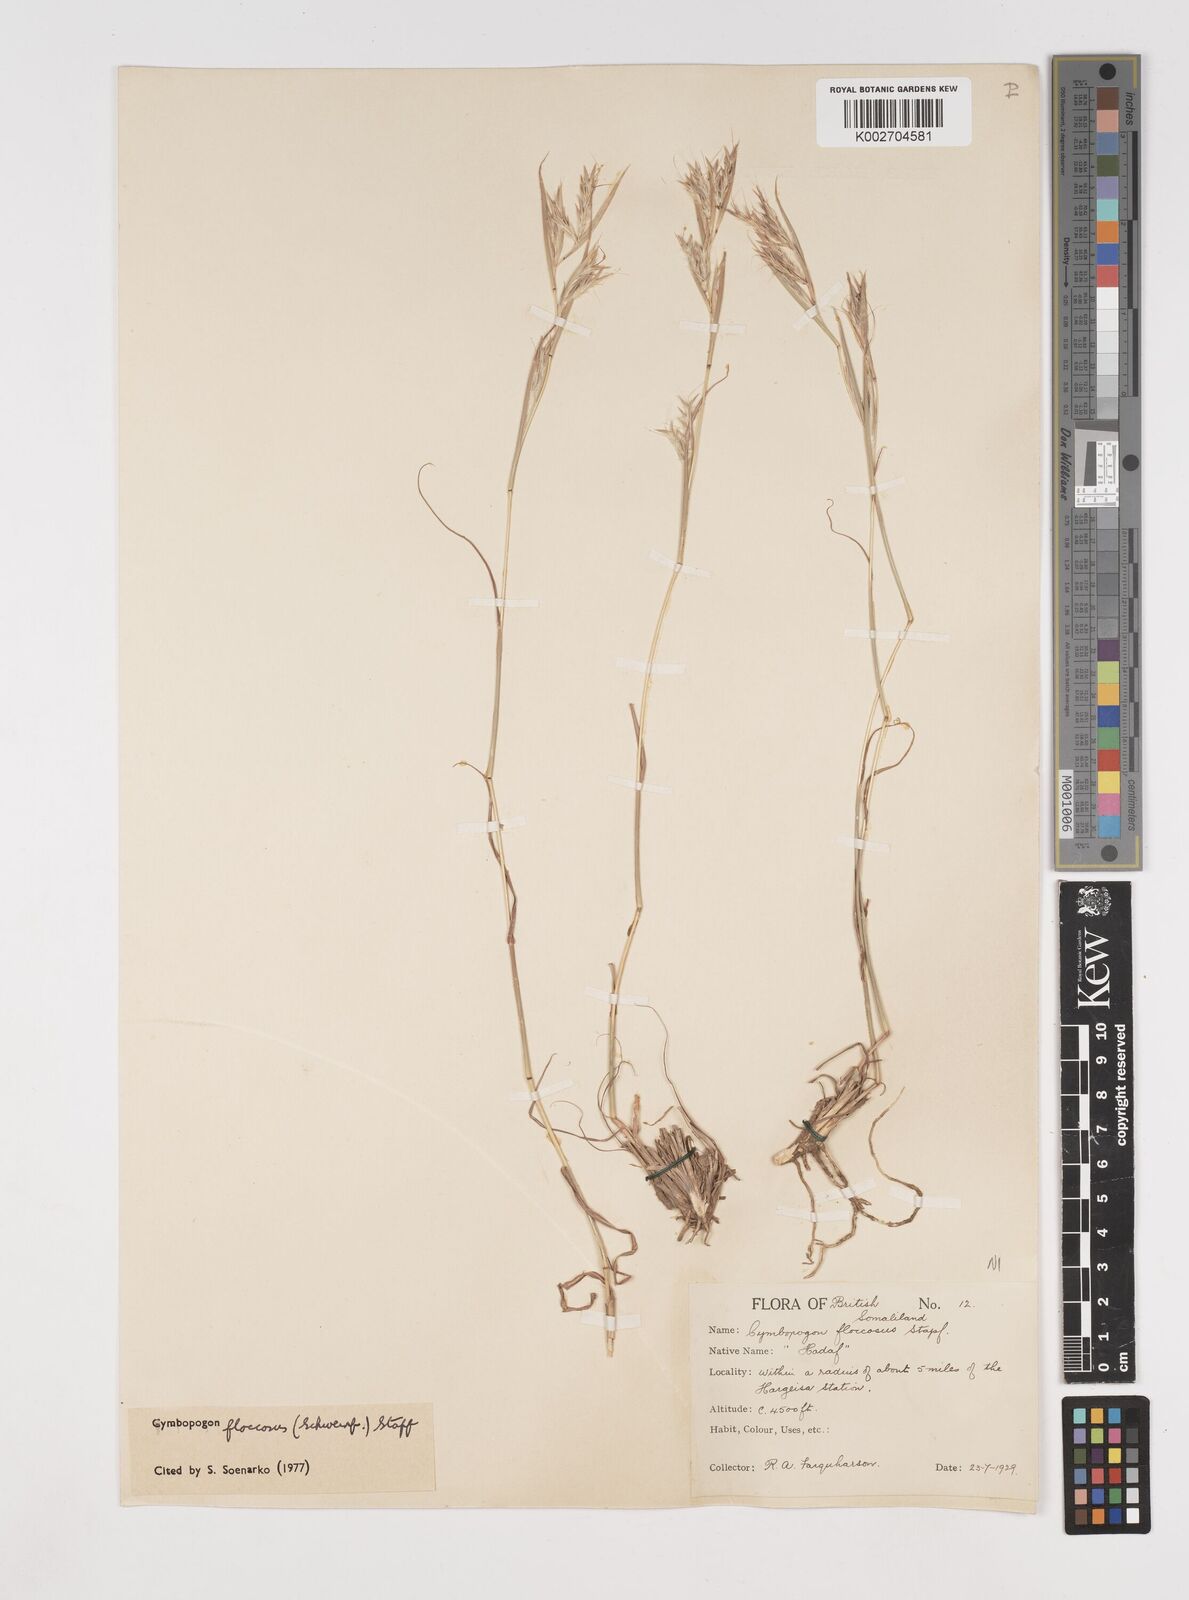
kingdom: Plantae
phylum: Tracheophyta
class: Liliopsida
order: Poales
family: Poaceae
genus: Cymbopogon
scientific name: Cymbopogon commutatus
